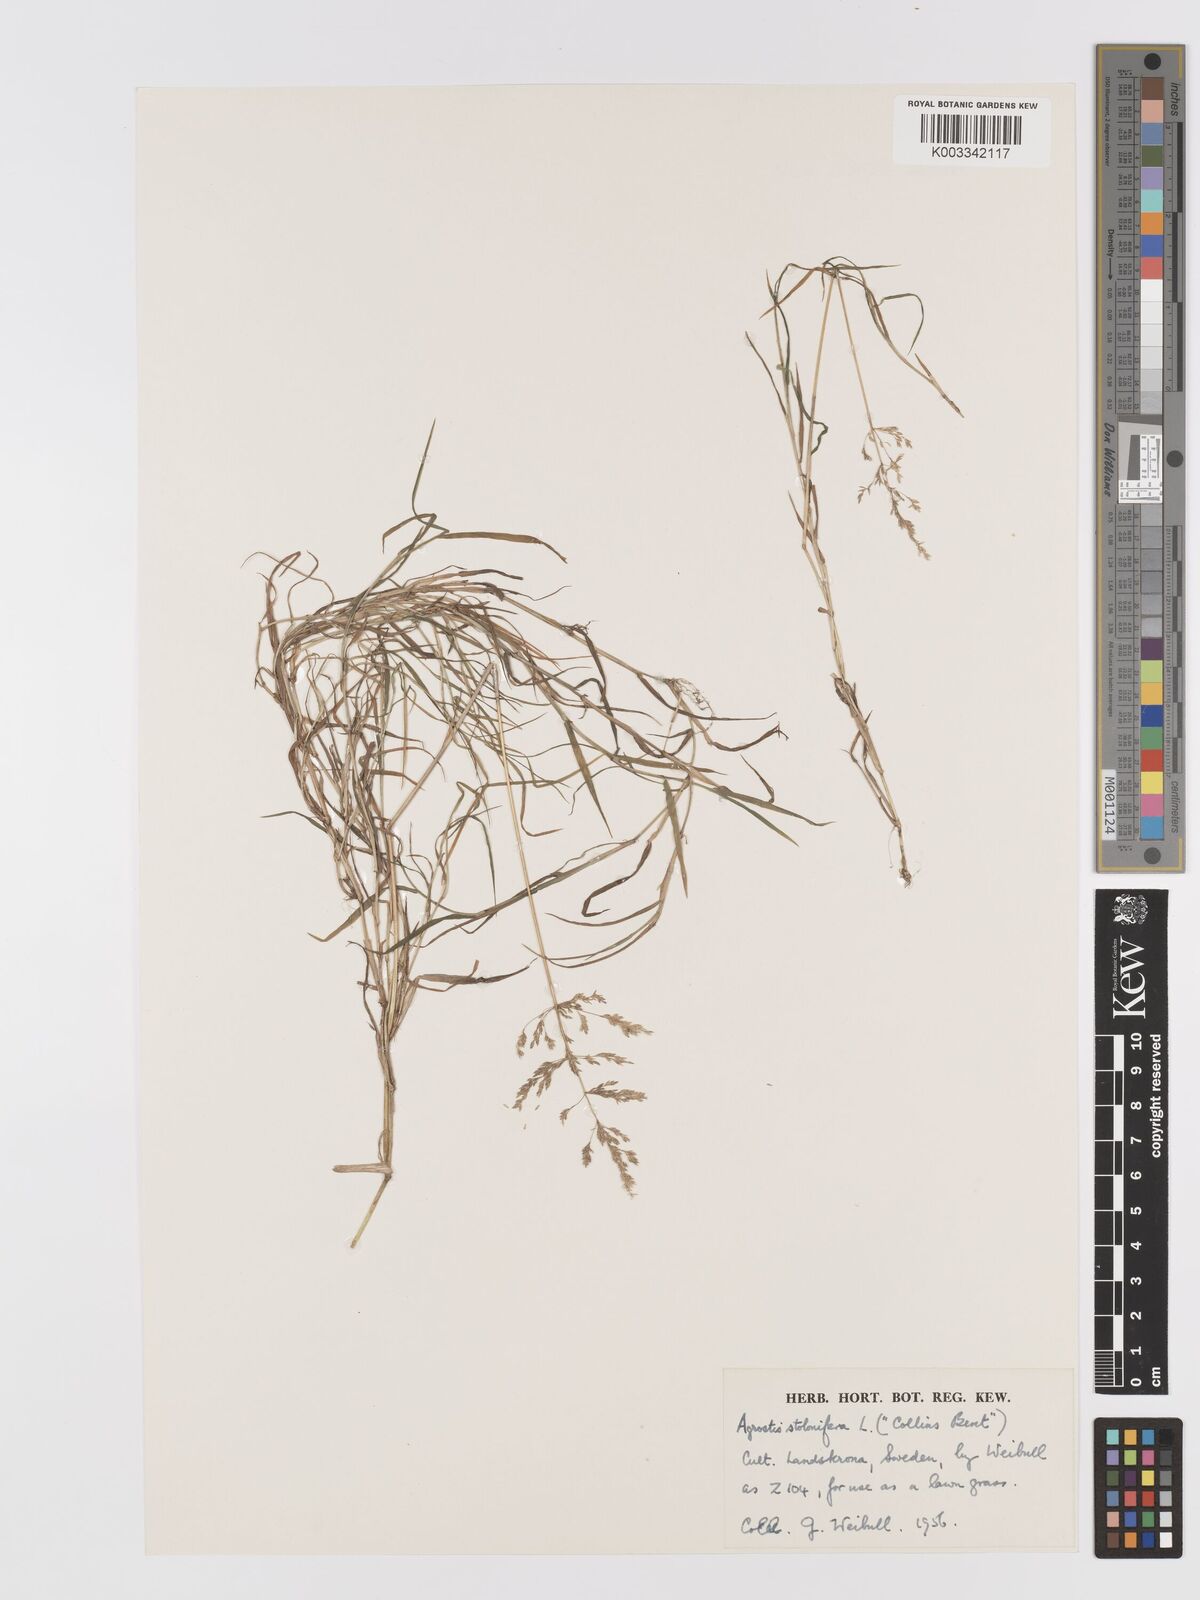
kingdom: Plantae
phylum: Tracheophyta
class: Liliopsida
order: Poales
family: Poaceae
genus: Agrostis
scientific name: Agrostis stolonifera
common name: Creeping bentgrass
